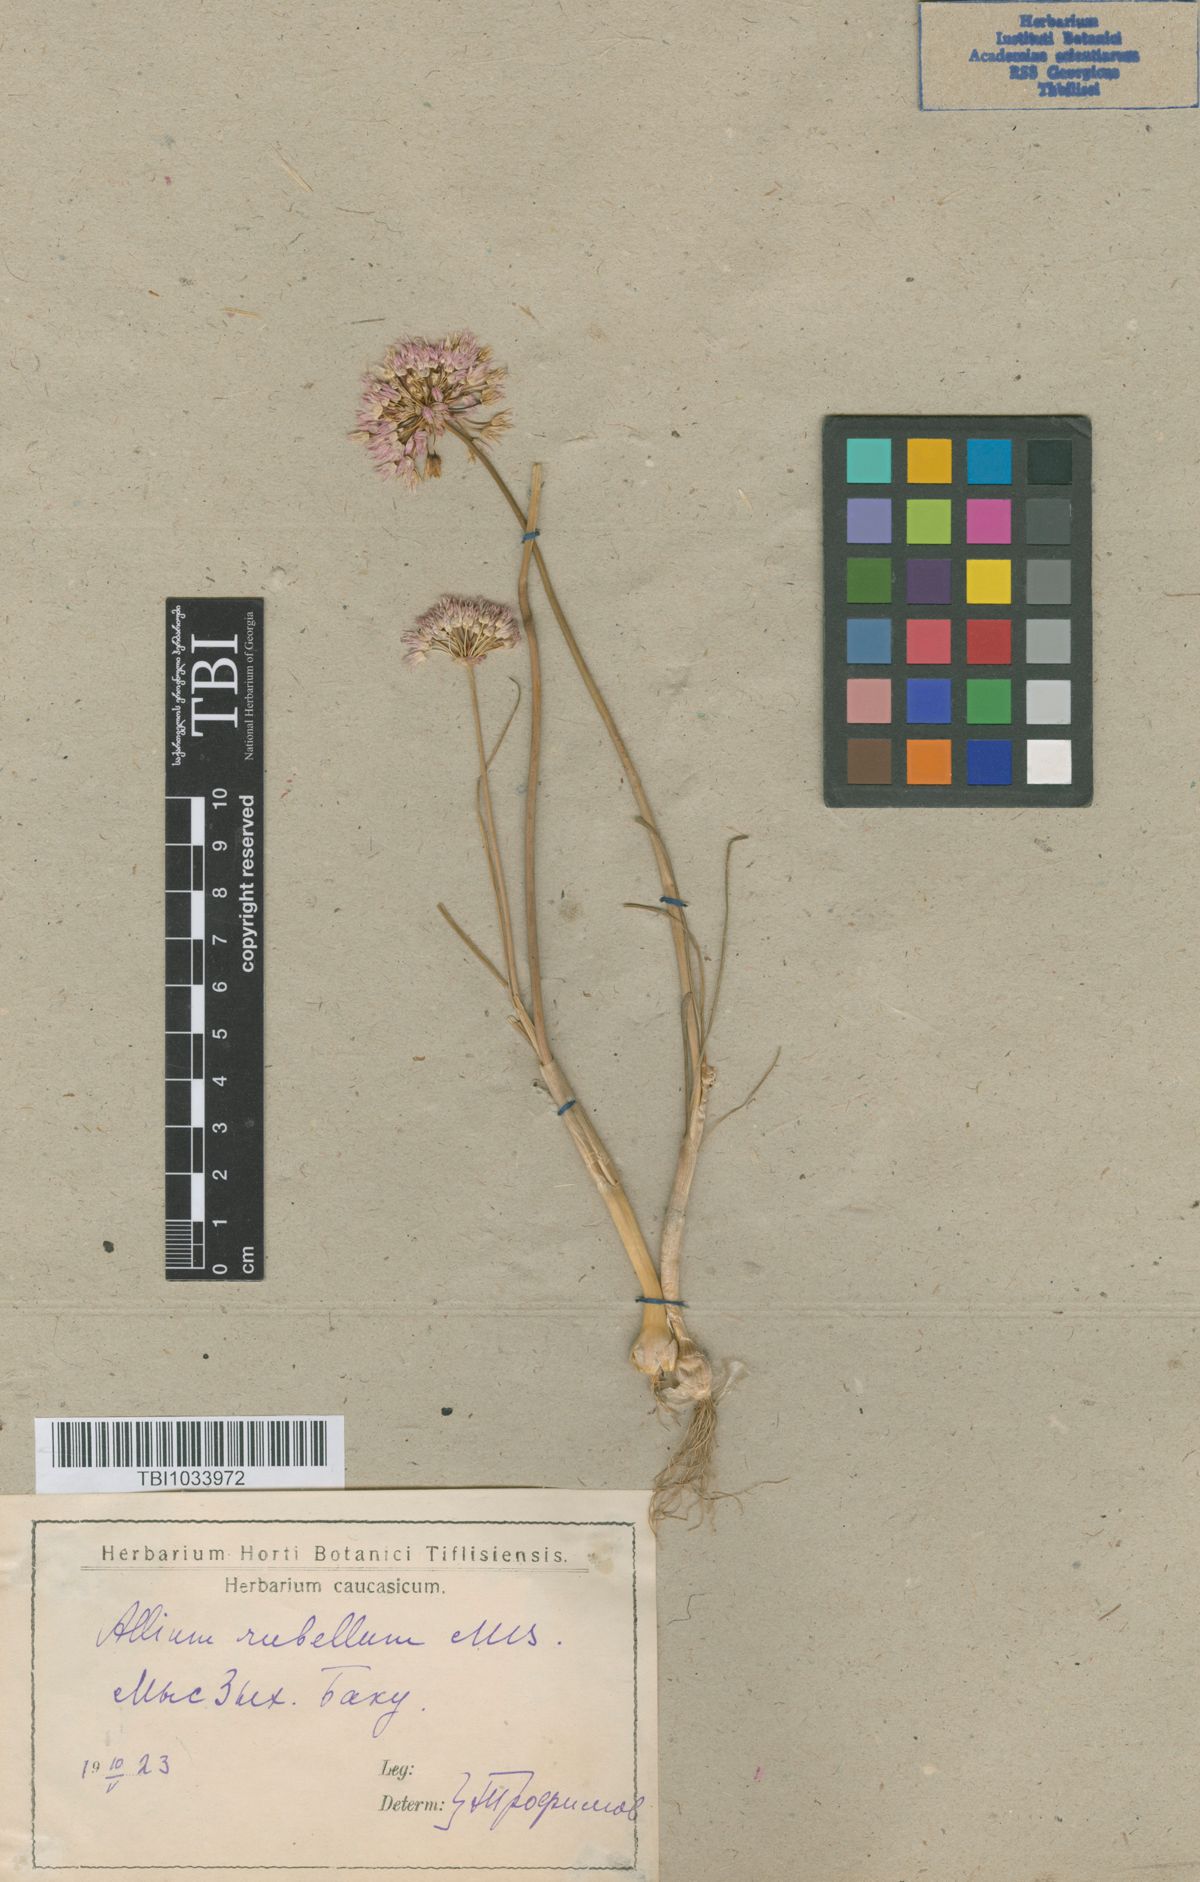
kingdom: Plantae
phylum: Tracheophyta
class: Liliopsida
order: Asparagales
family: Amaryllidaceae
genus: Allium
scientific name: Allium rubellum
